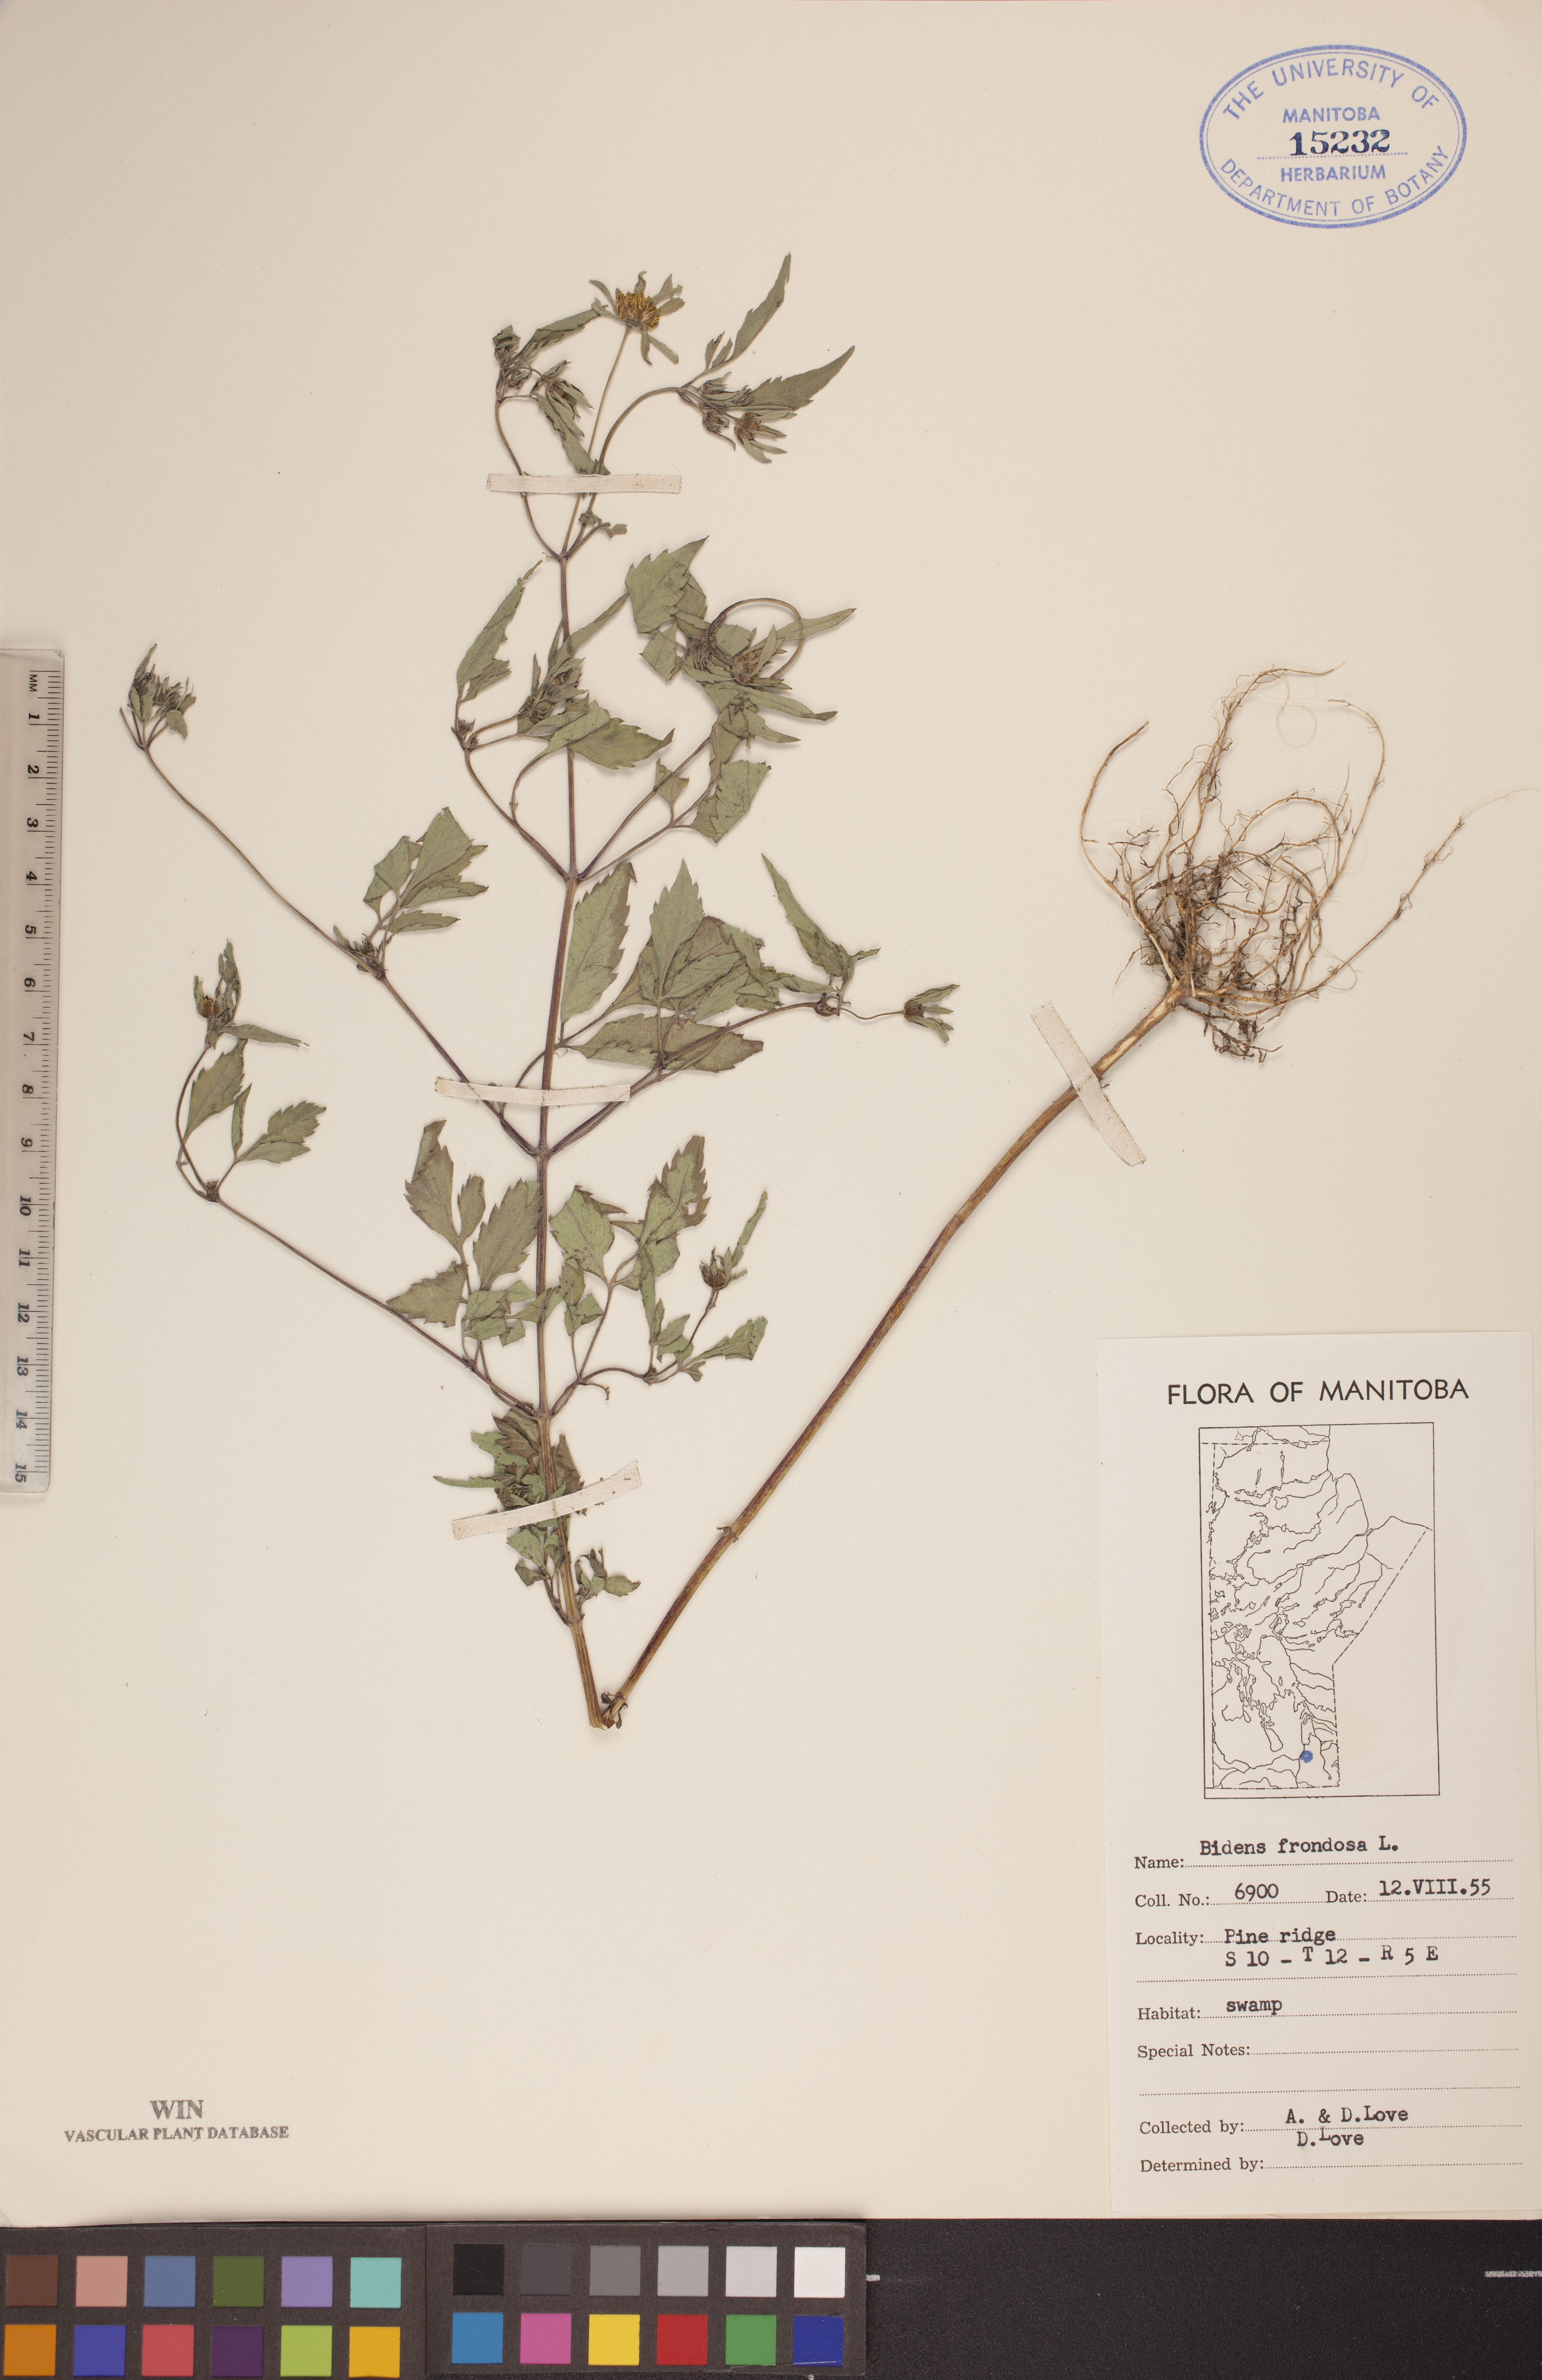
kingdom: Plantae
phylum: Tracheophyta
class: Magnoliopsida
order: Asterales
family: Asteraceae
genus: Bidens
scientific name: Bidens frondosa
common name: Beggarticks
